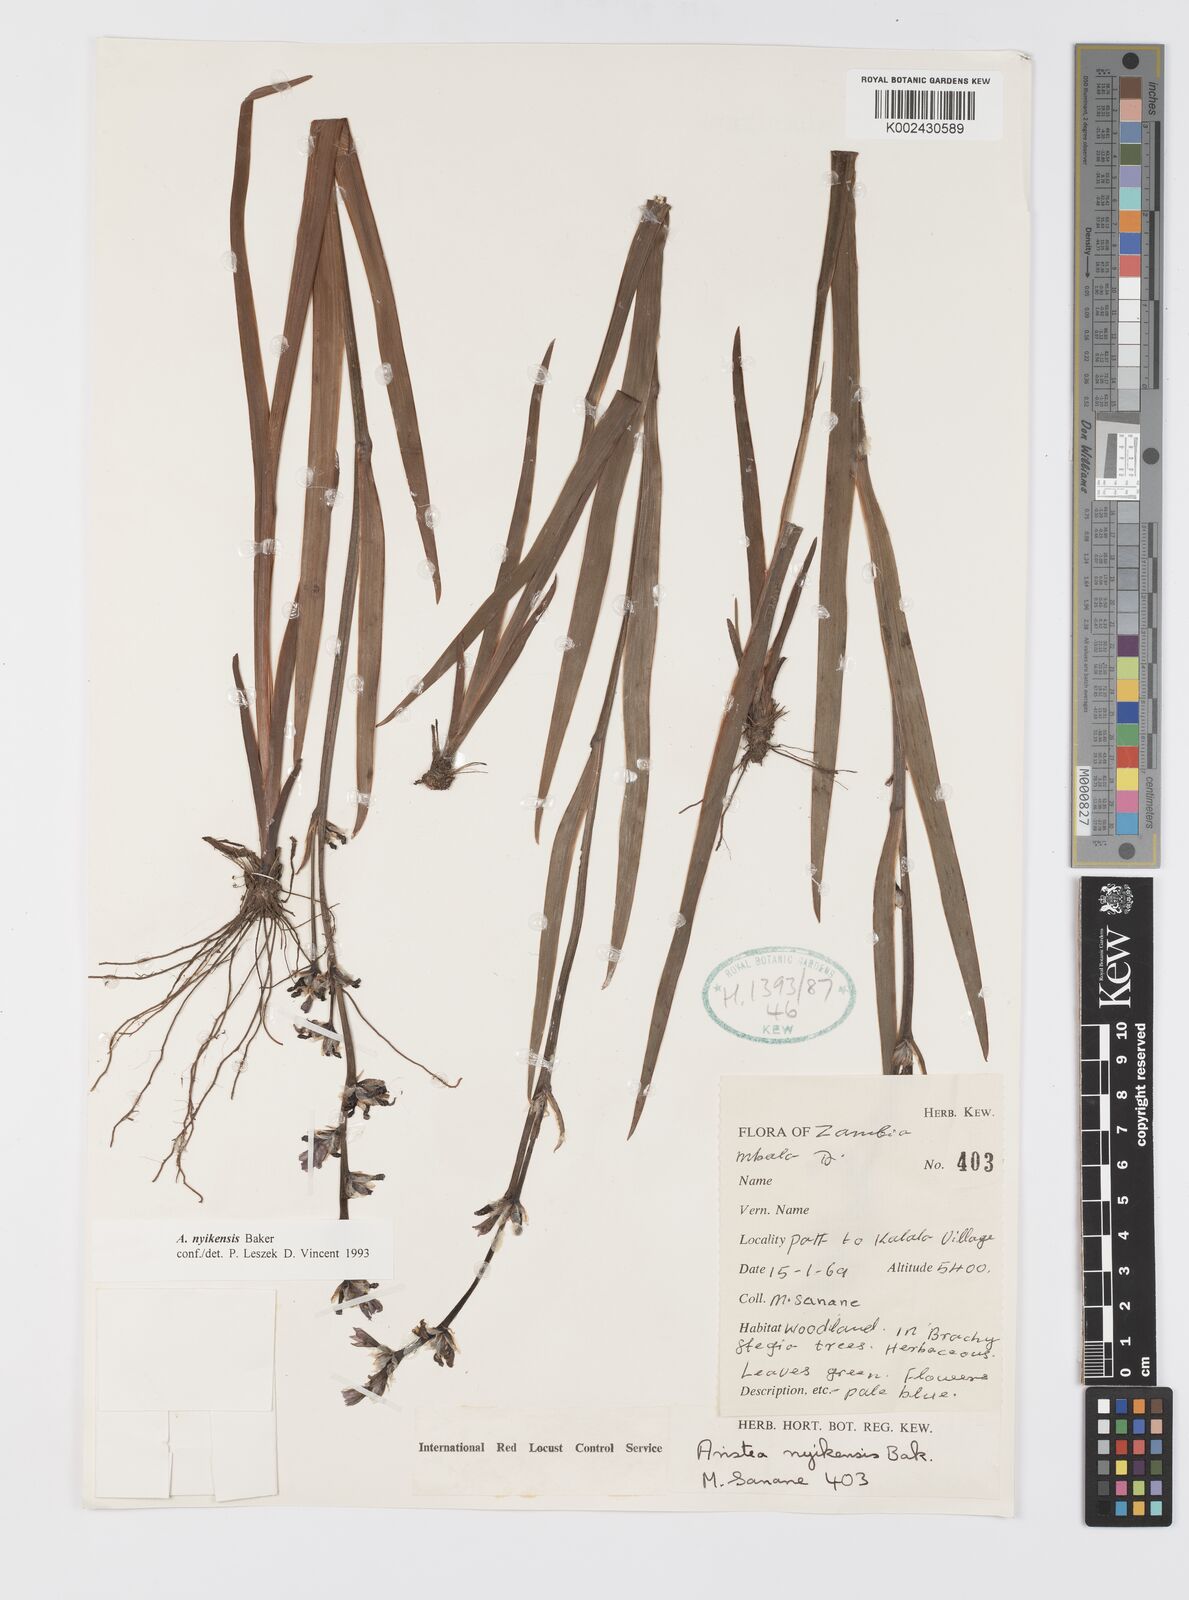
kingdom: Plantae
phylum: Tracheophyta
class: Liliopsida
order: Asparagales
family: Iridaceae
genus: Aristea
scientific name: Aristea nyikensis
